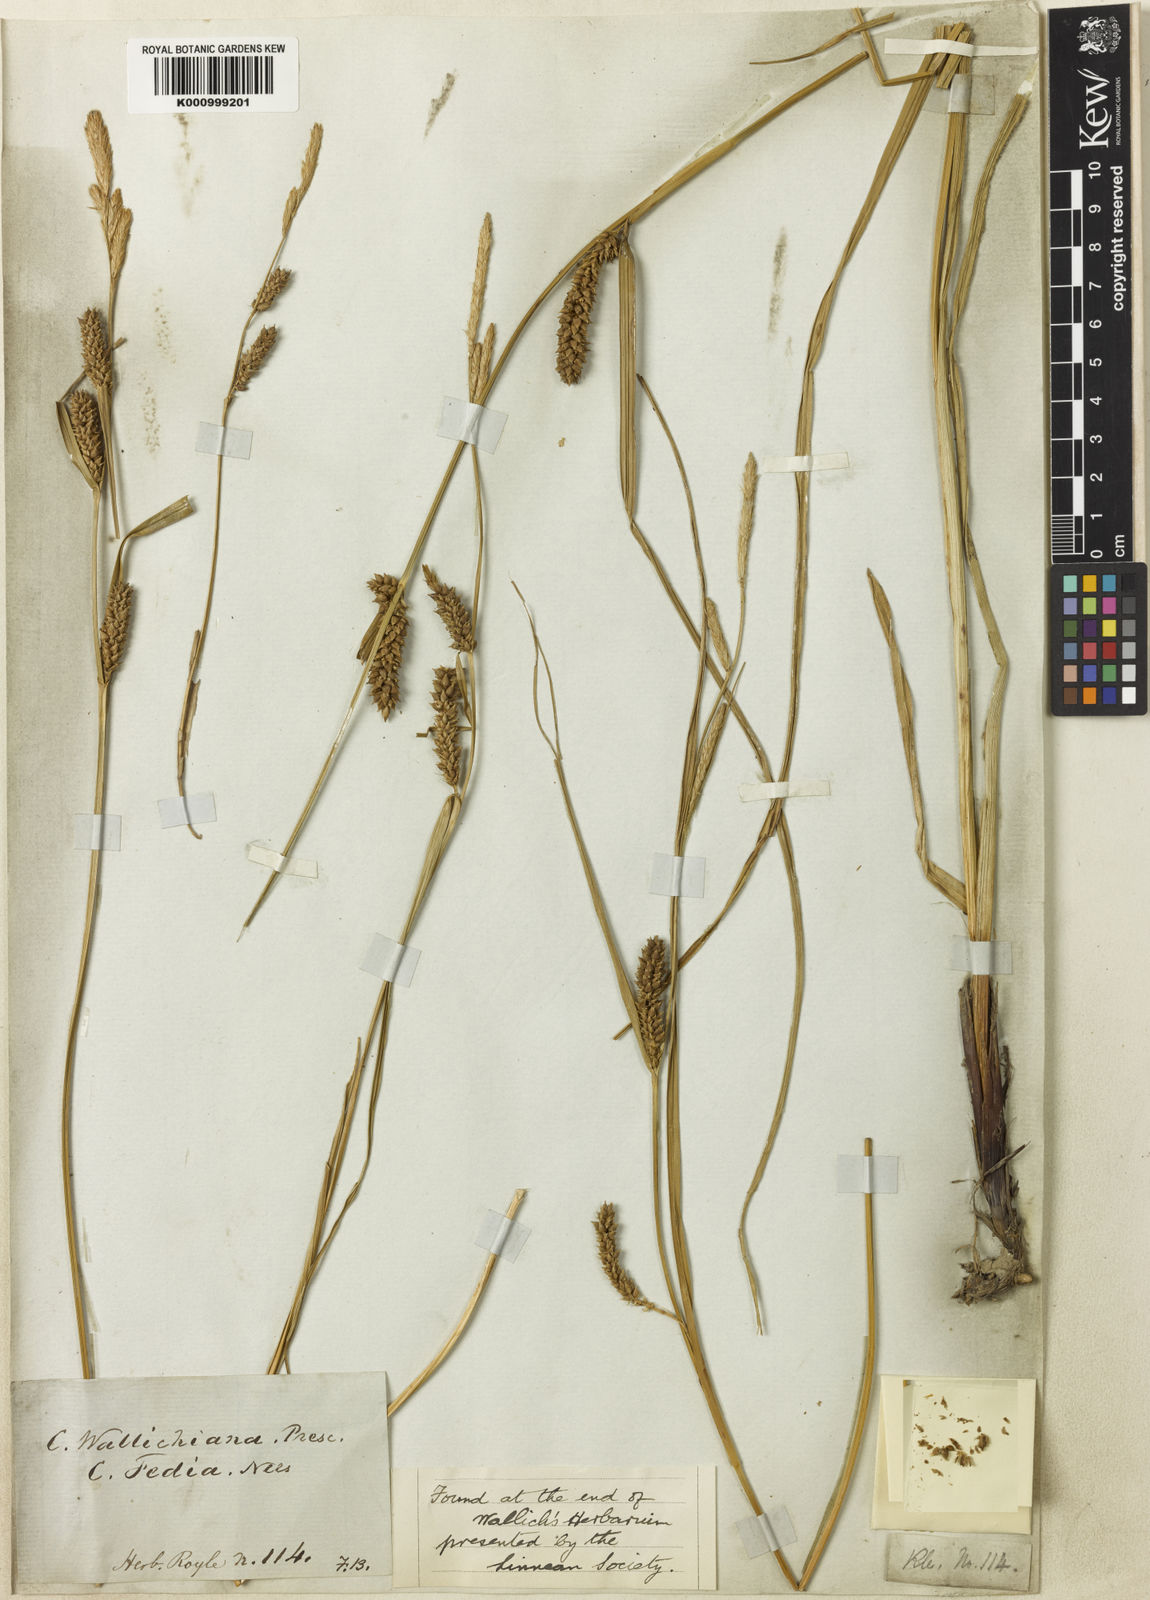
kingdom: Plantae
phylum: Tracheophyta
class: Liliopsida
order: Poales
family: Cyperaceae
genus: Carex
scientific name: Carex
